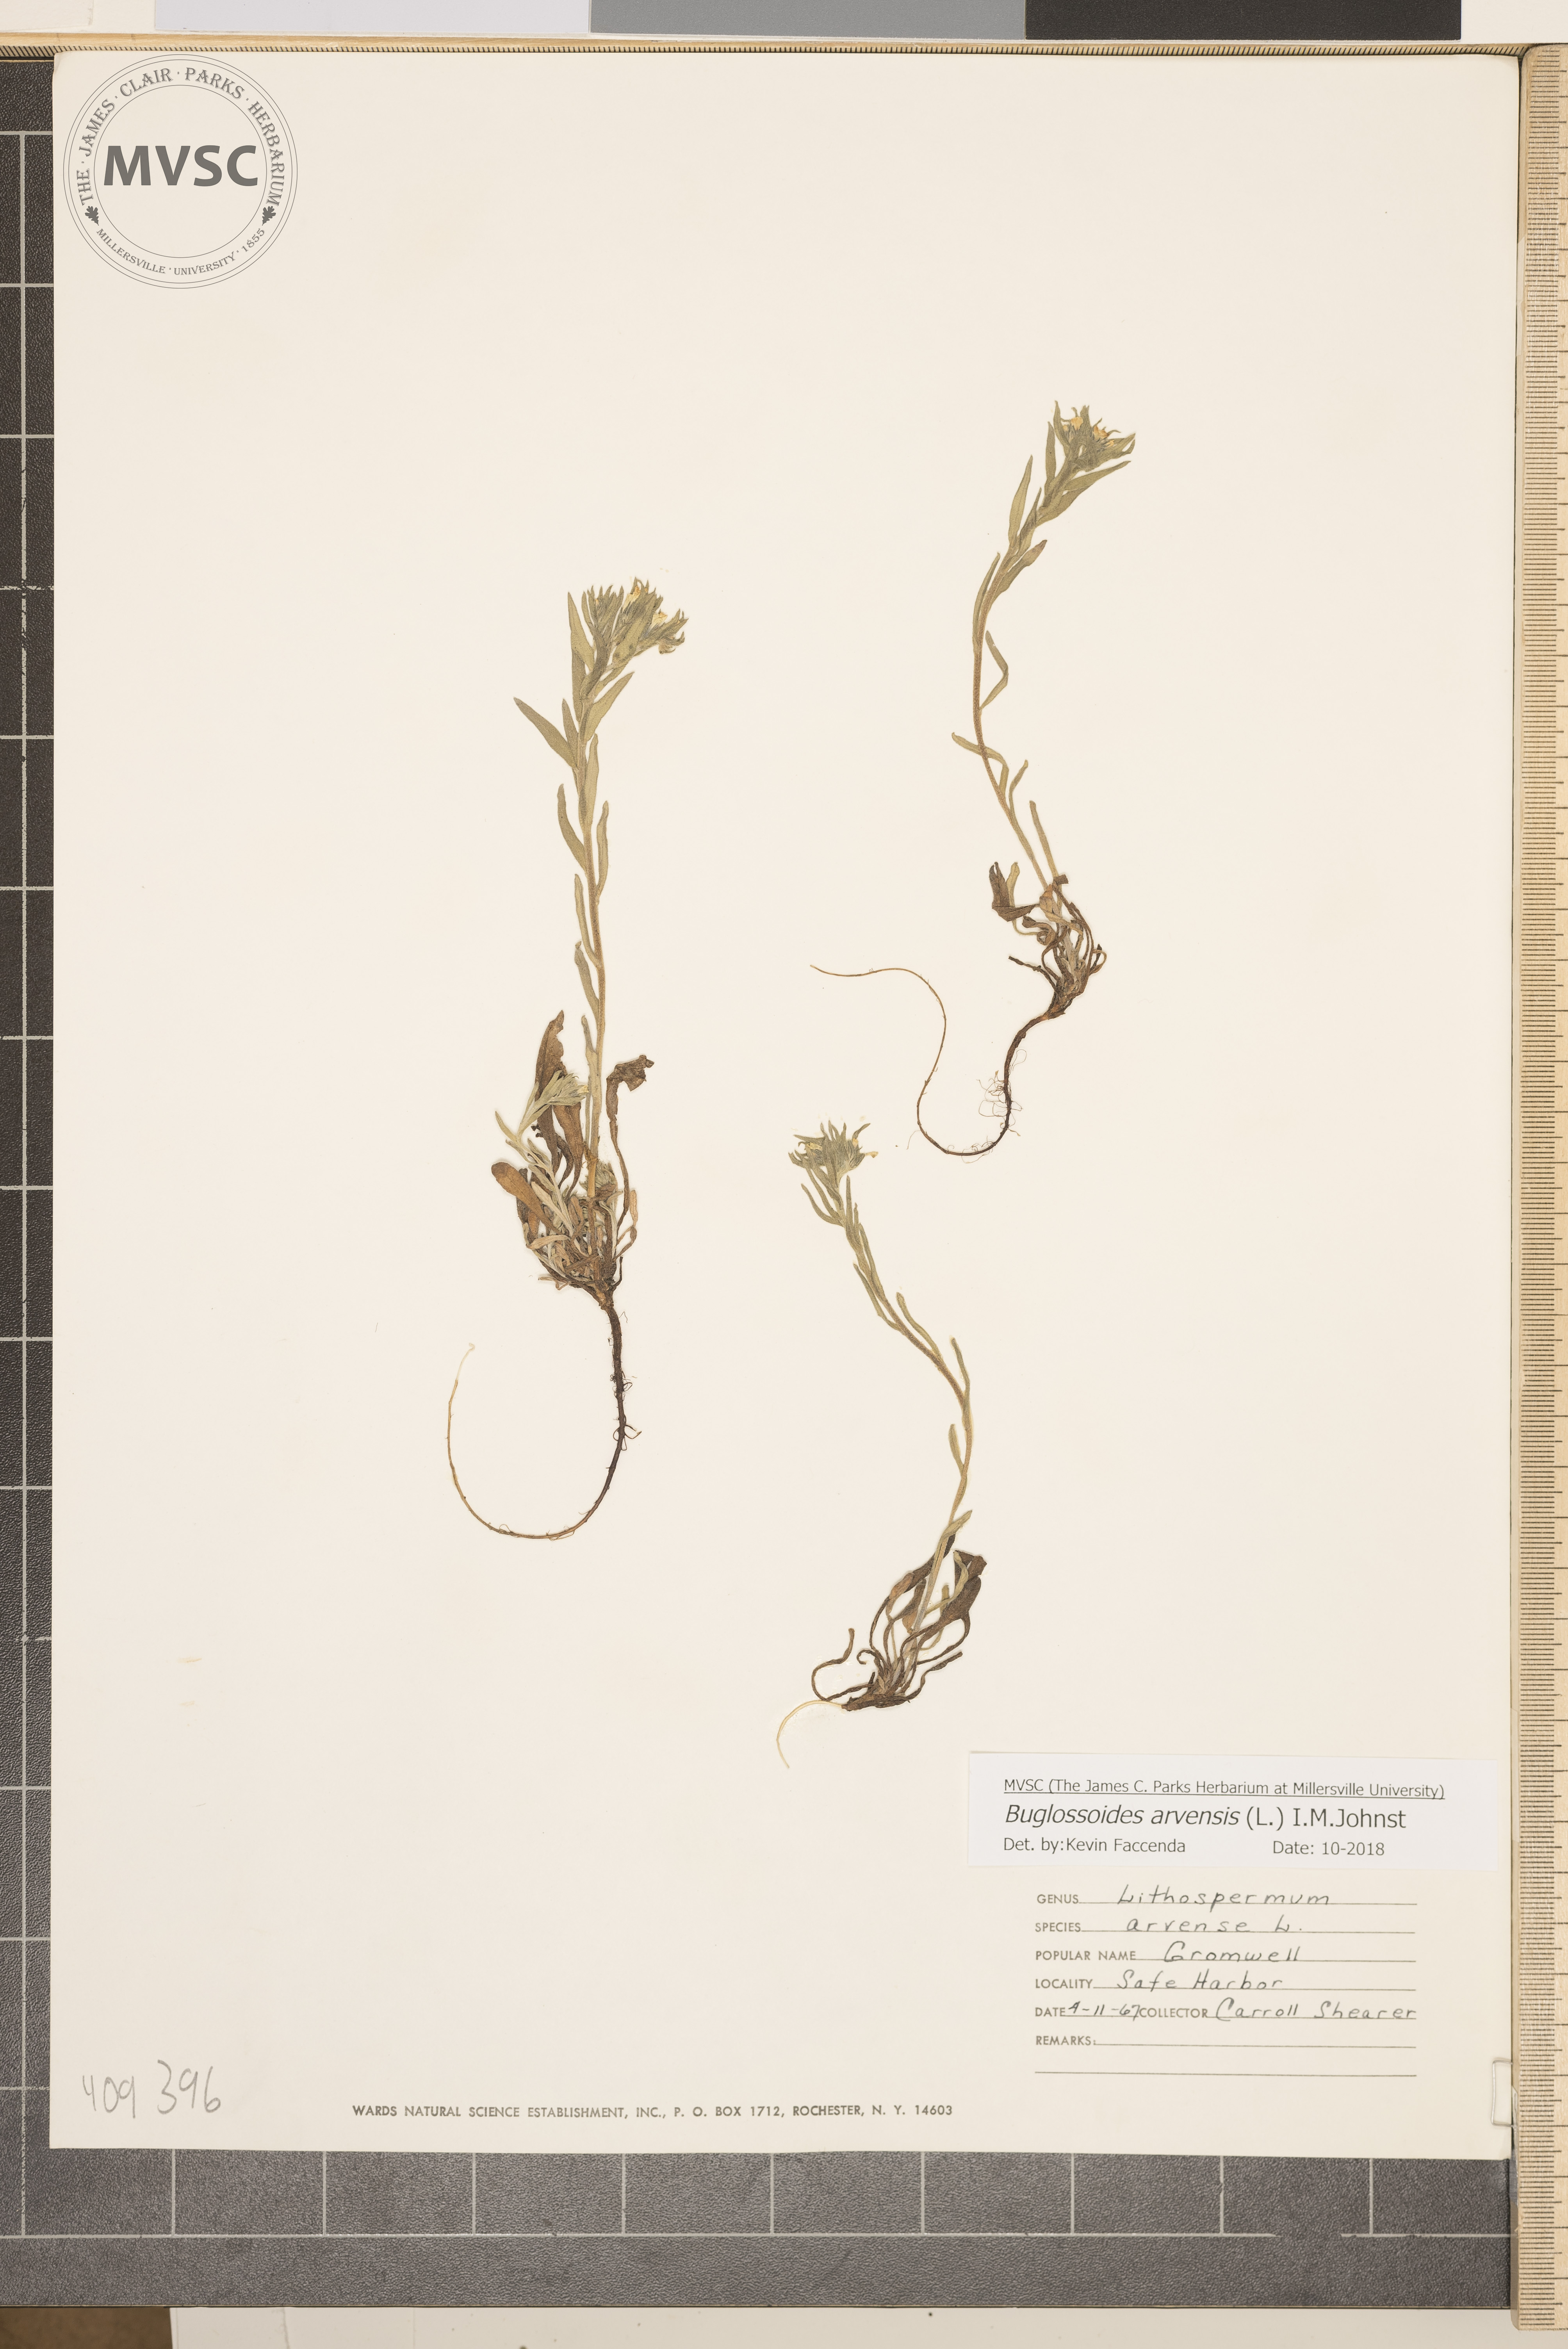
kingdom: Plantae
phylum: Tracheophyta
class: Magnoliopsida
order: Boraginales
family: Boraginaceae
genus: Buglossoides
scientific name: Buglossoides arvensis
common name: Corn gromwell
